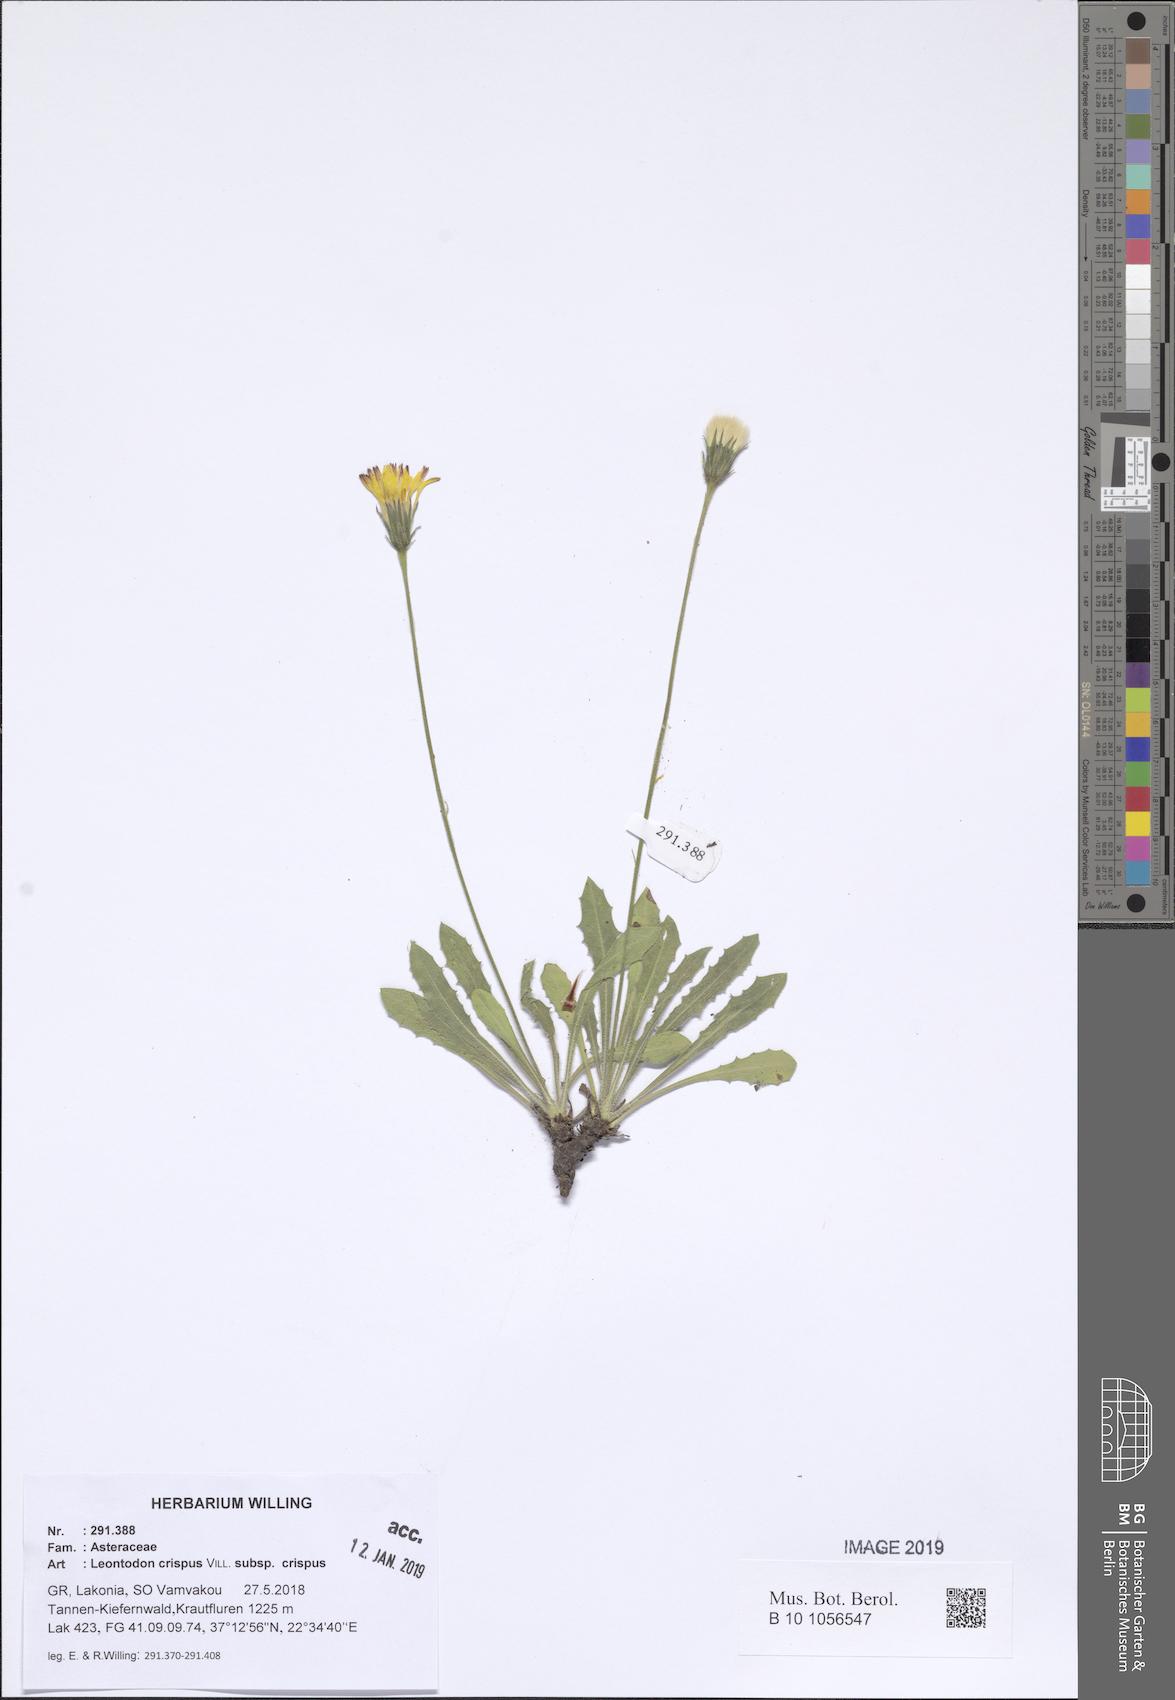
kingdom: Plantae
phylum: Tracheophyta
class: Magnoliopsida
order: Asterales
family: Asteraceae
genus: Leontodon
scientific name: Leontodon hyoseroides
